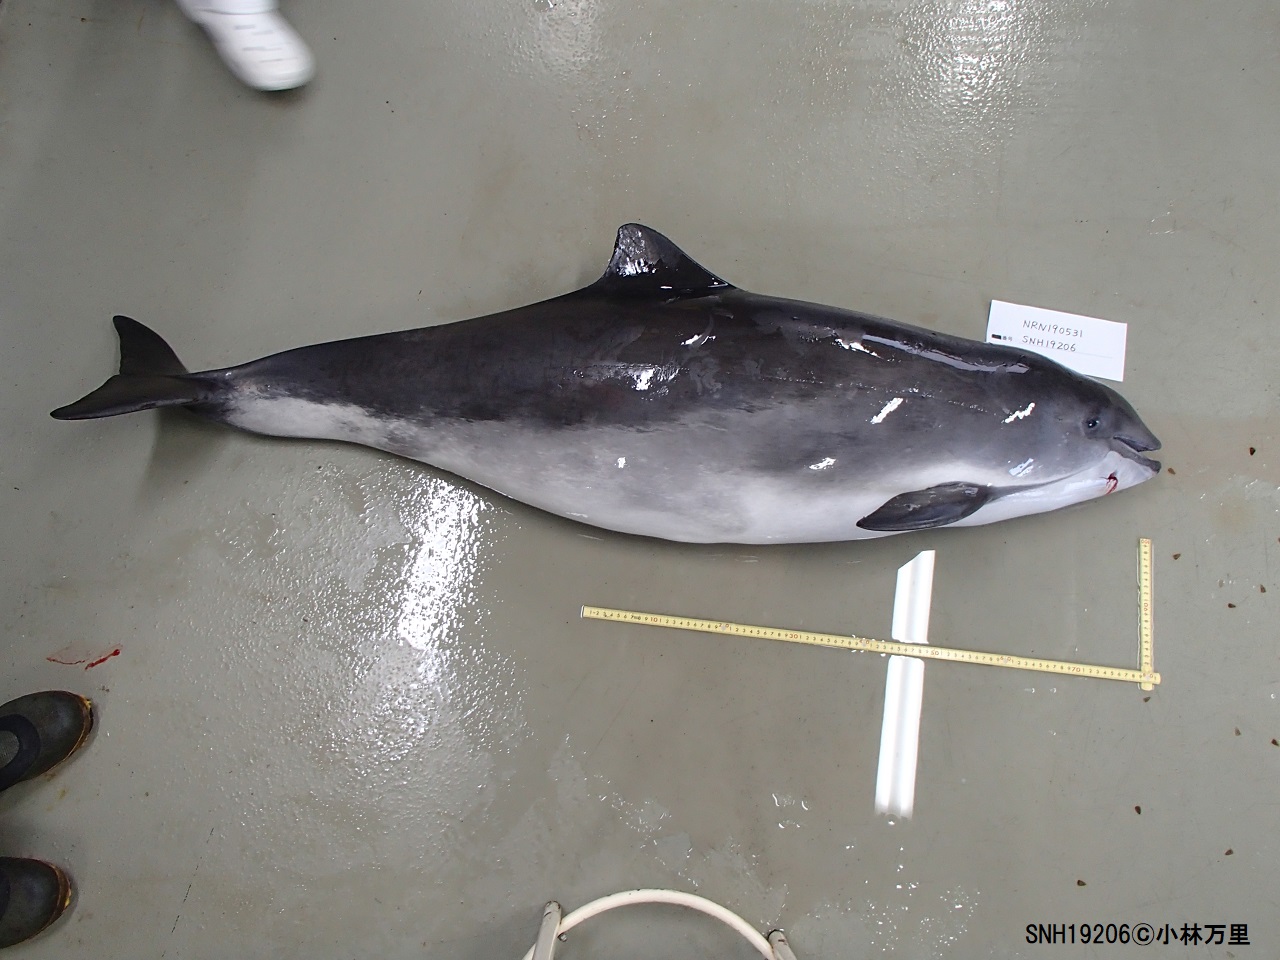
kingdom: Animalia
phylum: Chordata
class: Mammalia
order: Cetacea
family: Phocoenidae
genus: Phocoena
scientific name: Phocoena phocoena
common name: Harbour porpoise
